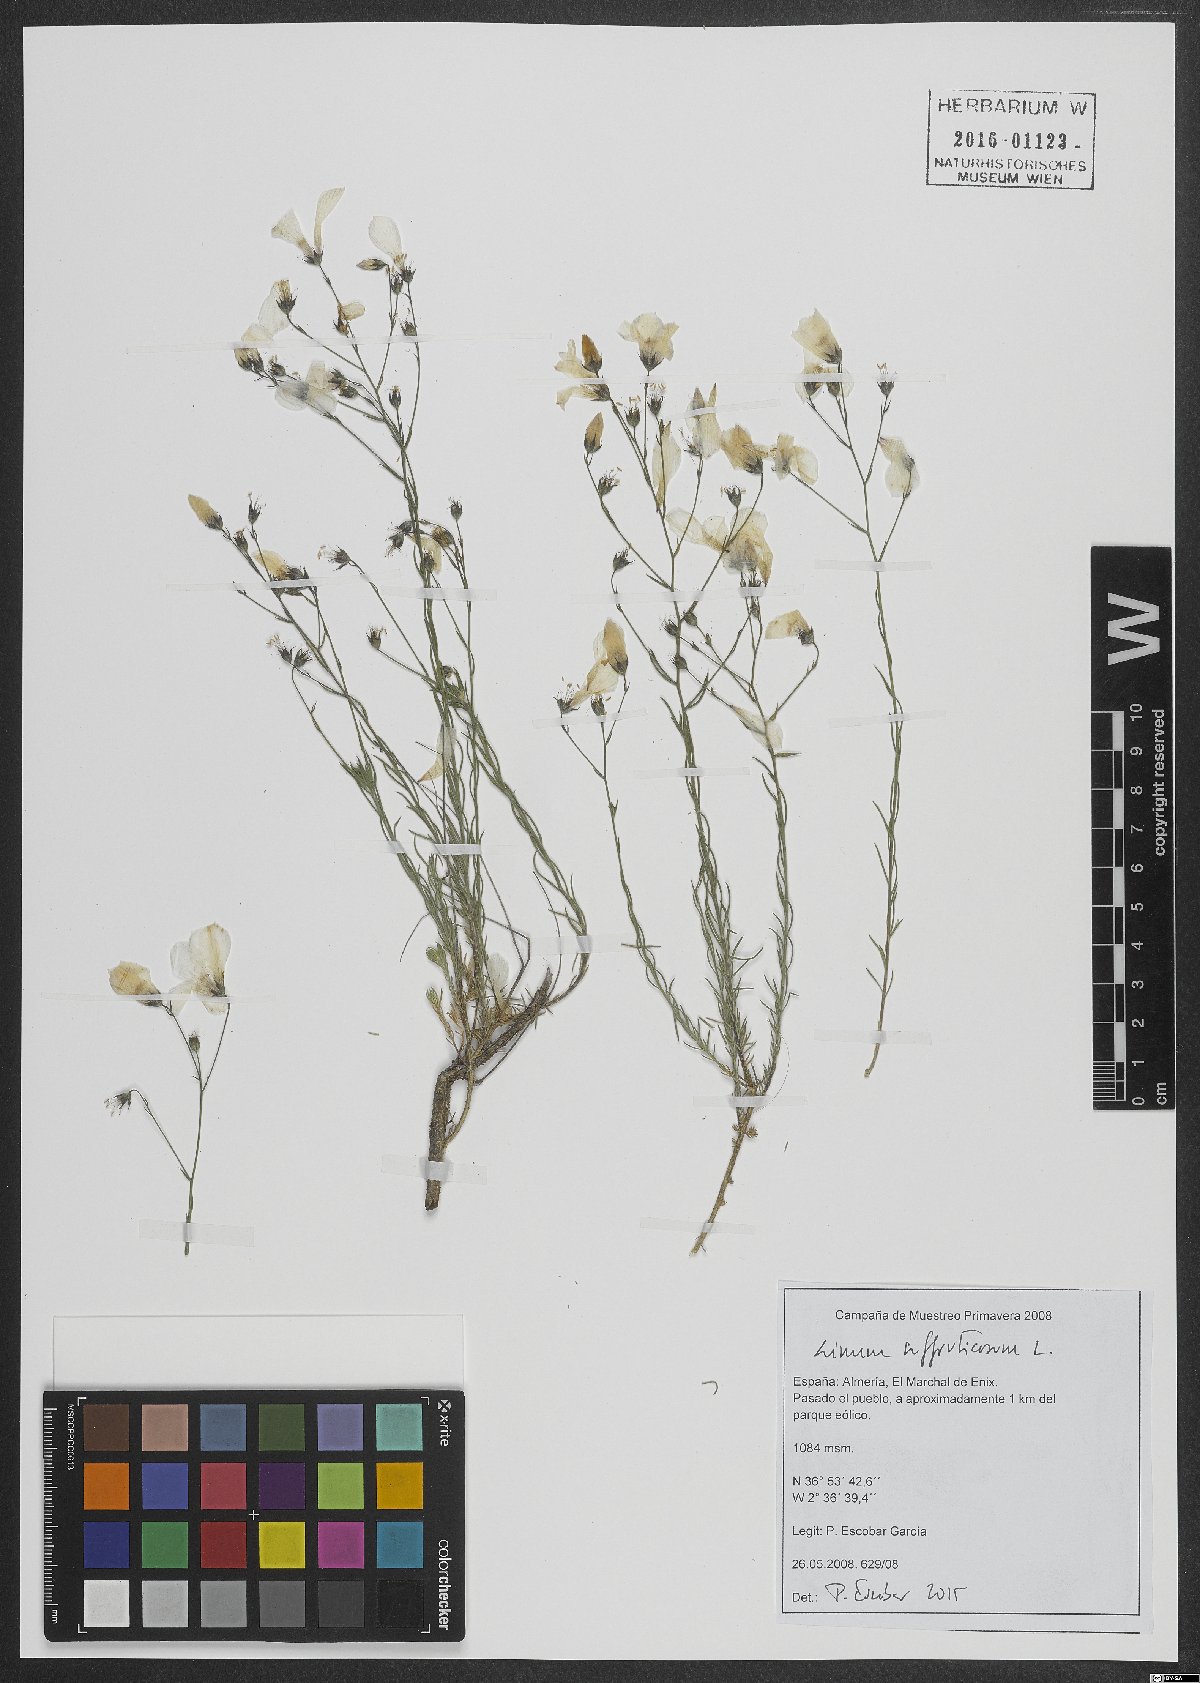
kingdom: Plantae
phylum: Tracheophyta
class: Magnoliopsida
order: Malpighiales
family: Linaceae
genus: Linum
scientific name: Linum suffruticosum
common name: White flax
